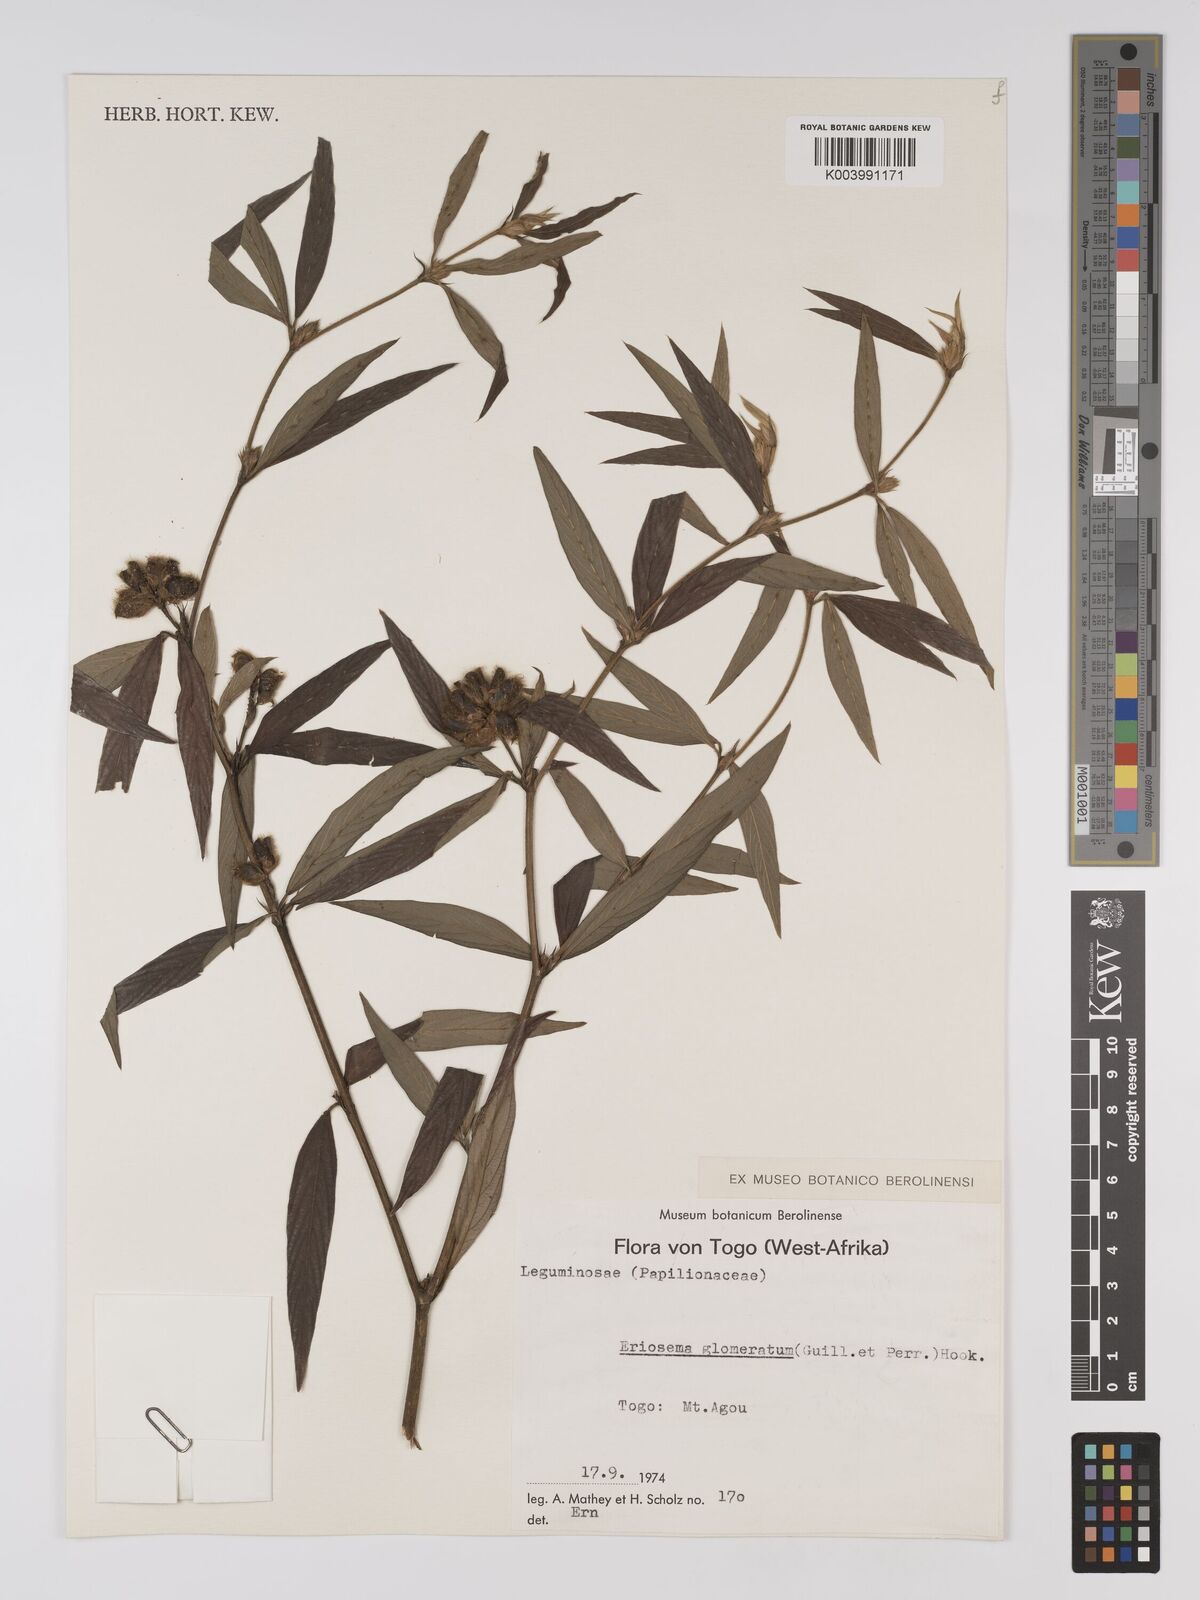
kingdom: Plantae
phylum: Tracheophyta
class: Magnoliopsida
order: Fabales
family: Fabaceae
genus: Eriosema
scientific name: Eriosema glomeratum
